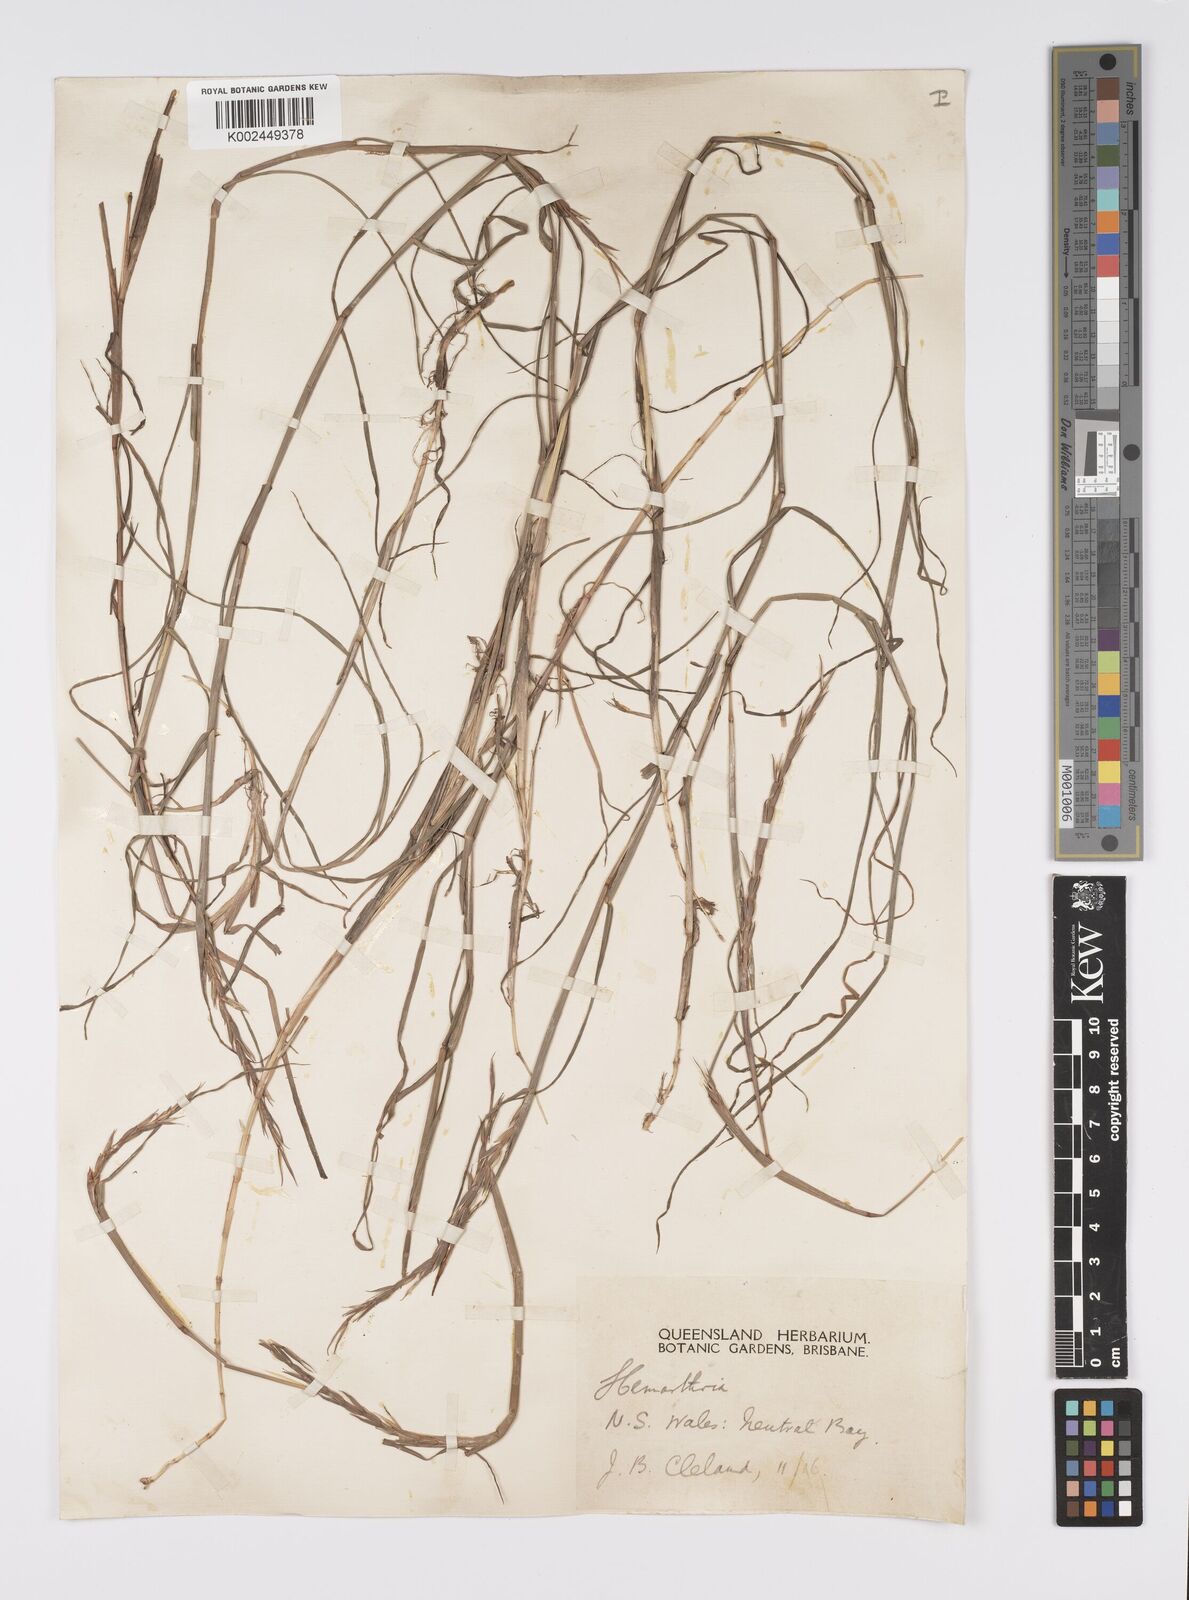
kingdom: Plantae
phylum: Tracheophyta
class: Liliopsida
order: Poales
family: Poaceae
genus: Hemarthria
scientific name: Hemarthria uncinata
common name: Matgrass
